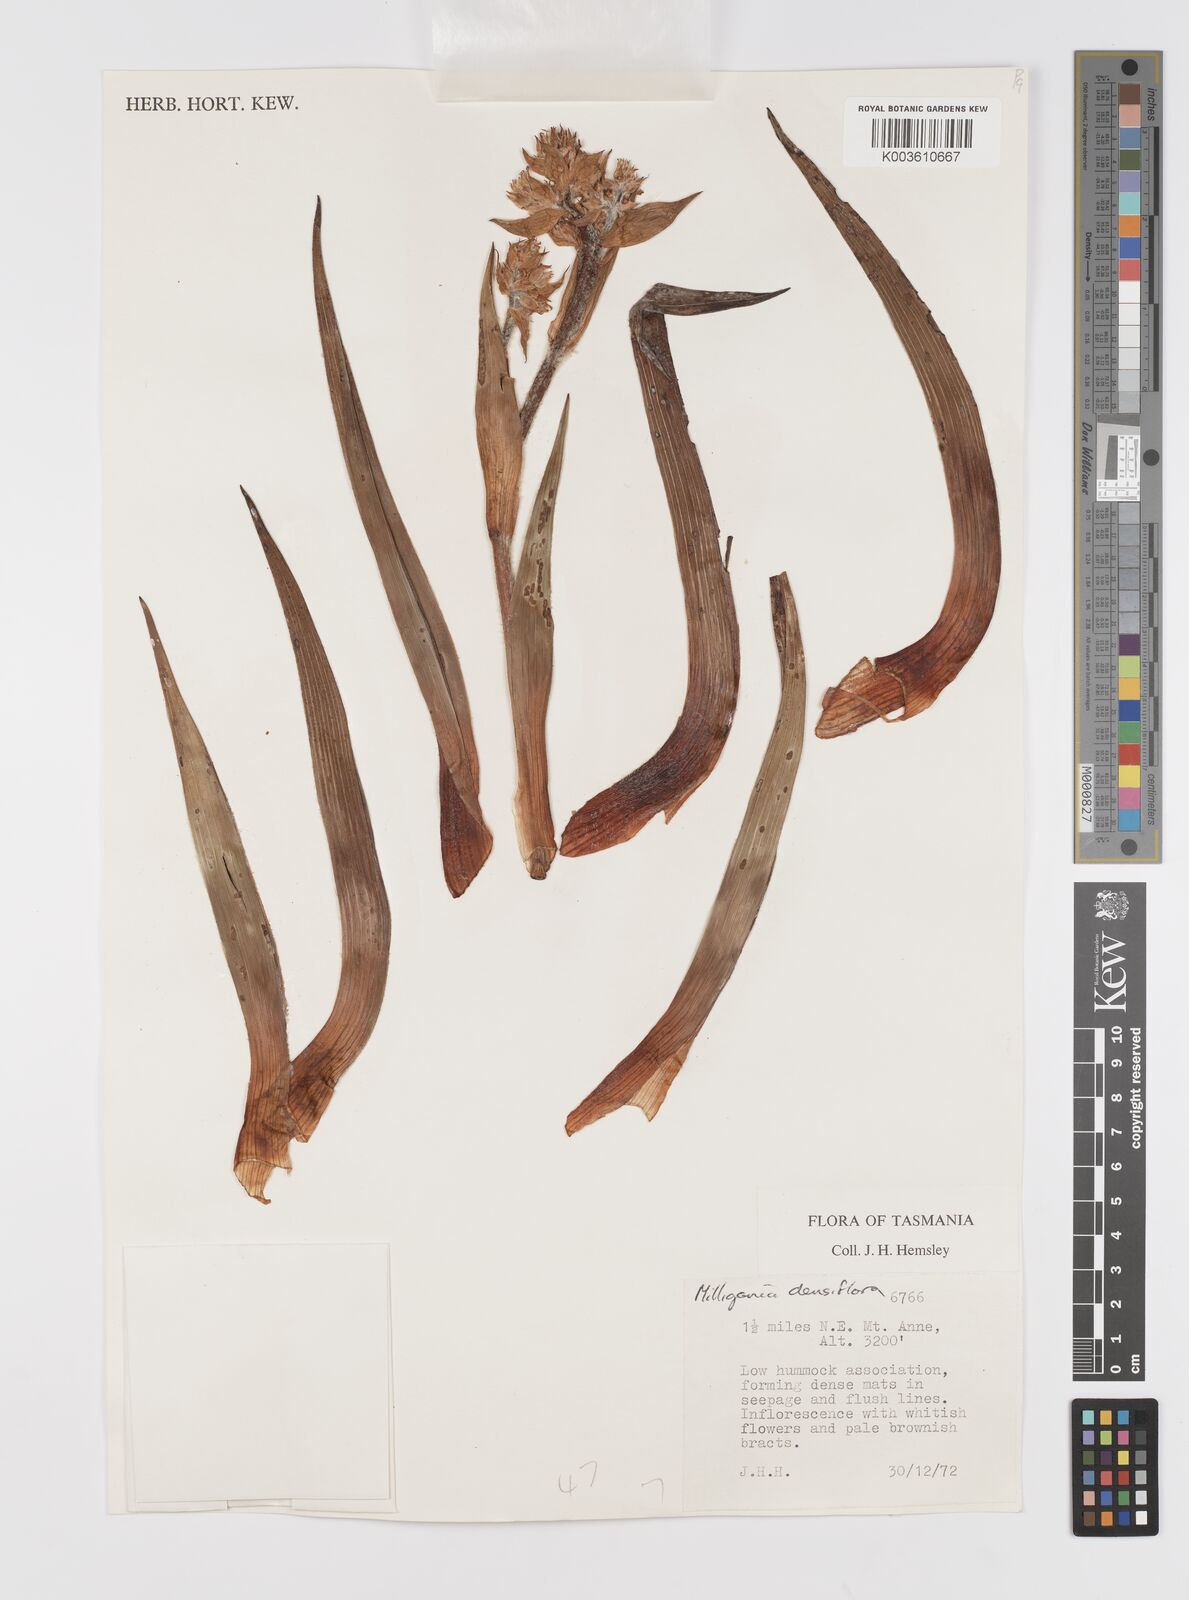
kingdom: Plantae
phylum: Tracheophyta
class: Liliopsida
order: Asparagales
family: Asteliaceae
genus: Milligania
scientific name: Milligania densiflora
